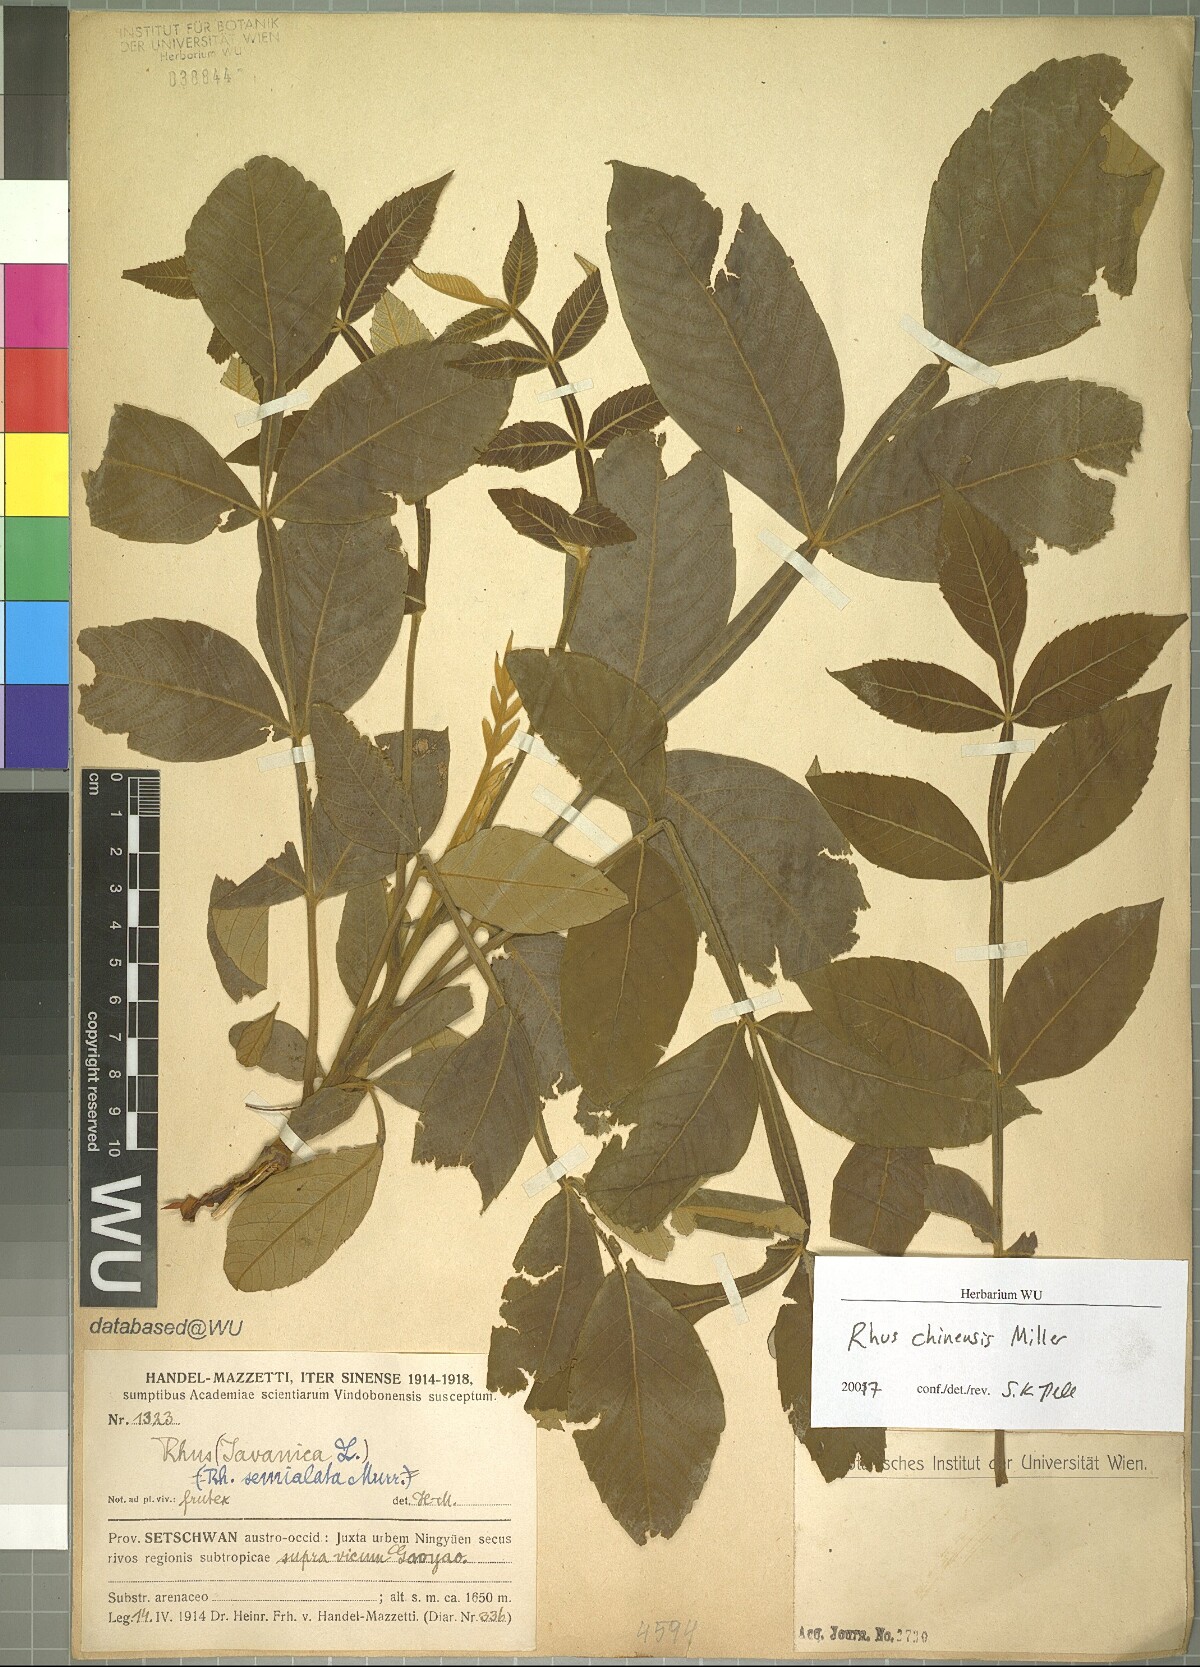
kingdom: Plantae
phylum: Tracheophyta
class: Magnoliopsida
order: Sapindales
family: Anacardiaceae
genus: Rhus
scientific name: Rhus chinensis
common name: Chinese gall
